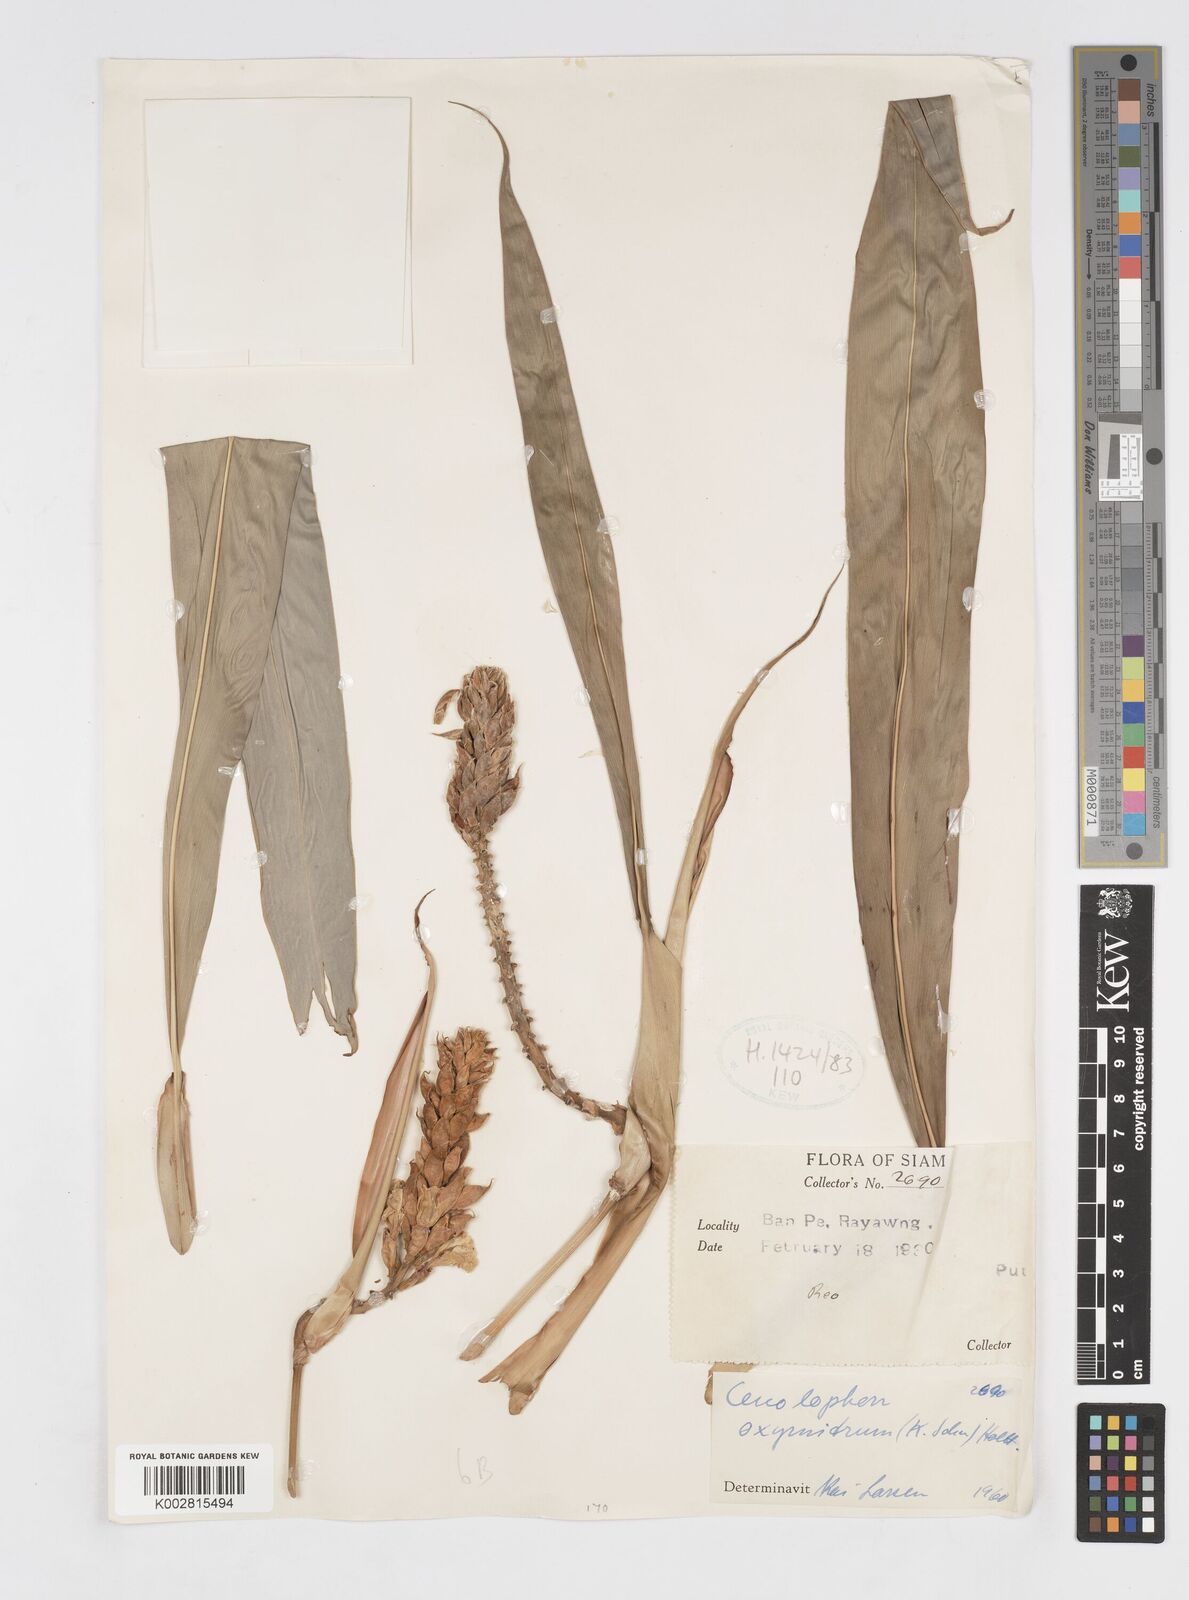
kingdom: Plantae
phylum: Tracheophyta
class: Liliopsida
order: Zingiberales
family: Zingiberaceae
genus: Alpinia
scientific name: Alpinia oxymitra
